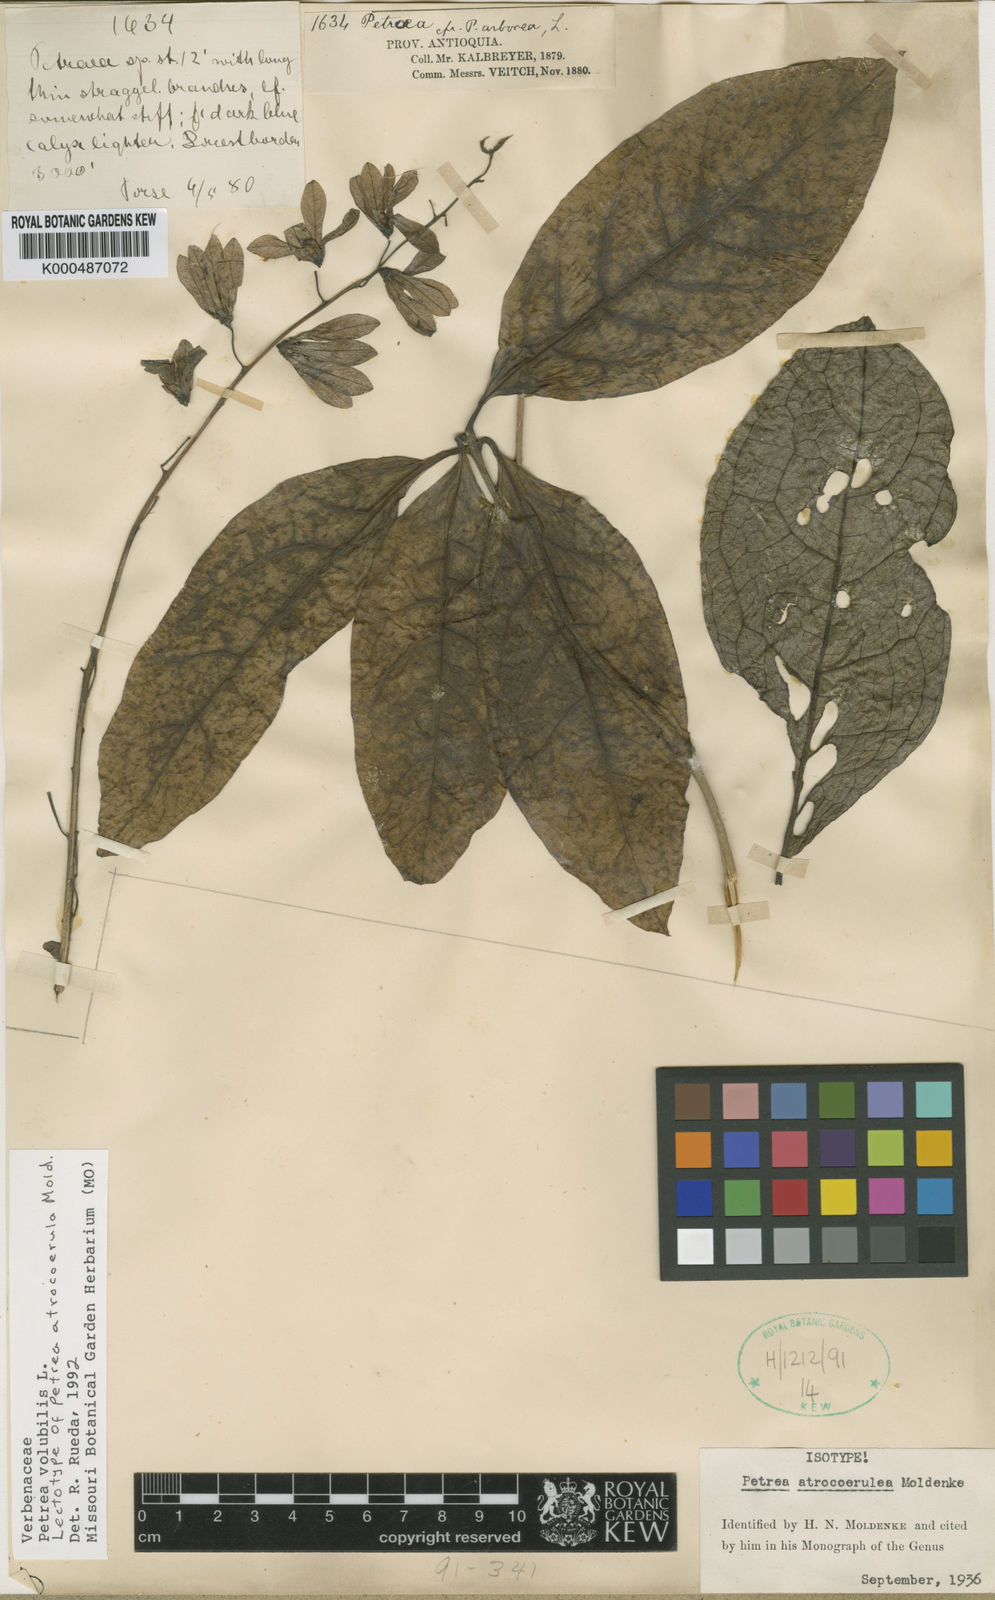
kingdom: Plantae
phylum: Tracheophyta
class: Magnoliopsida
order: Lamiales
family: Verbenaceae
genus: Petrea
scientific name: Petrea volubilis
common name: Queen's-wreath
